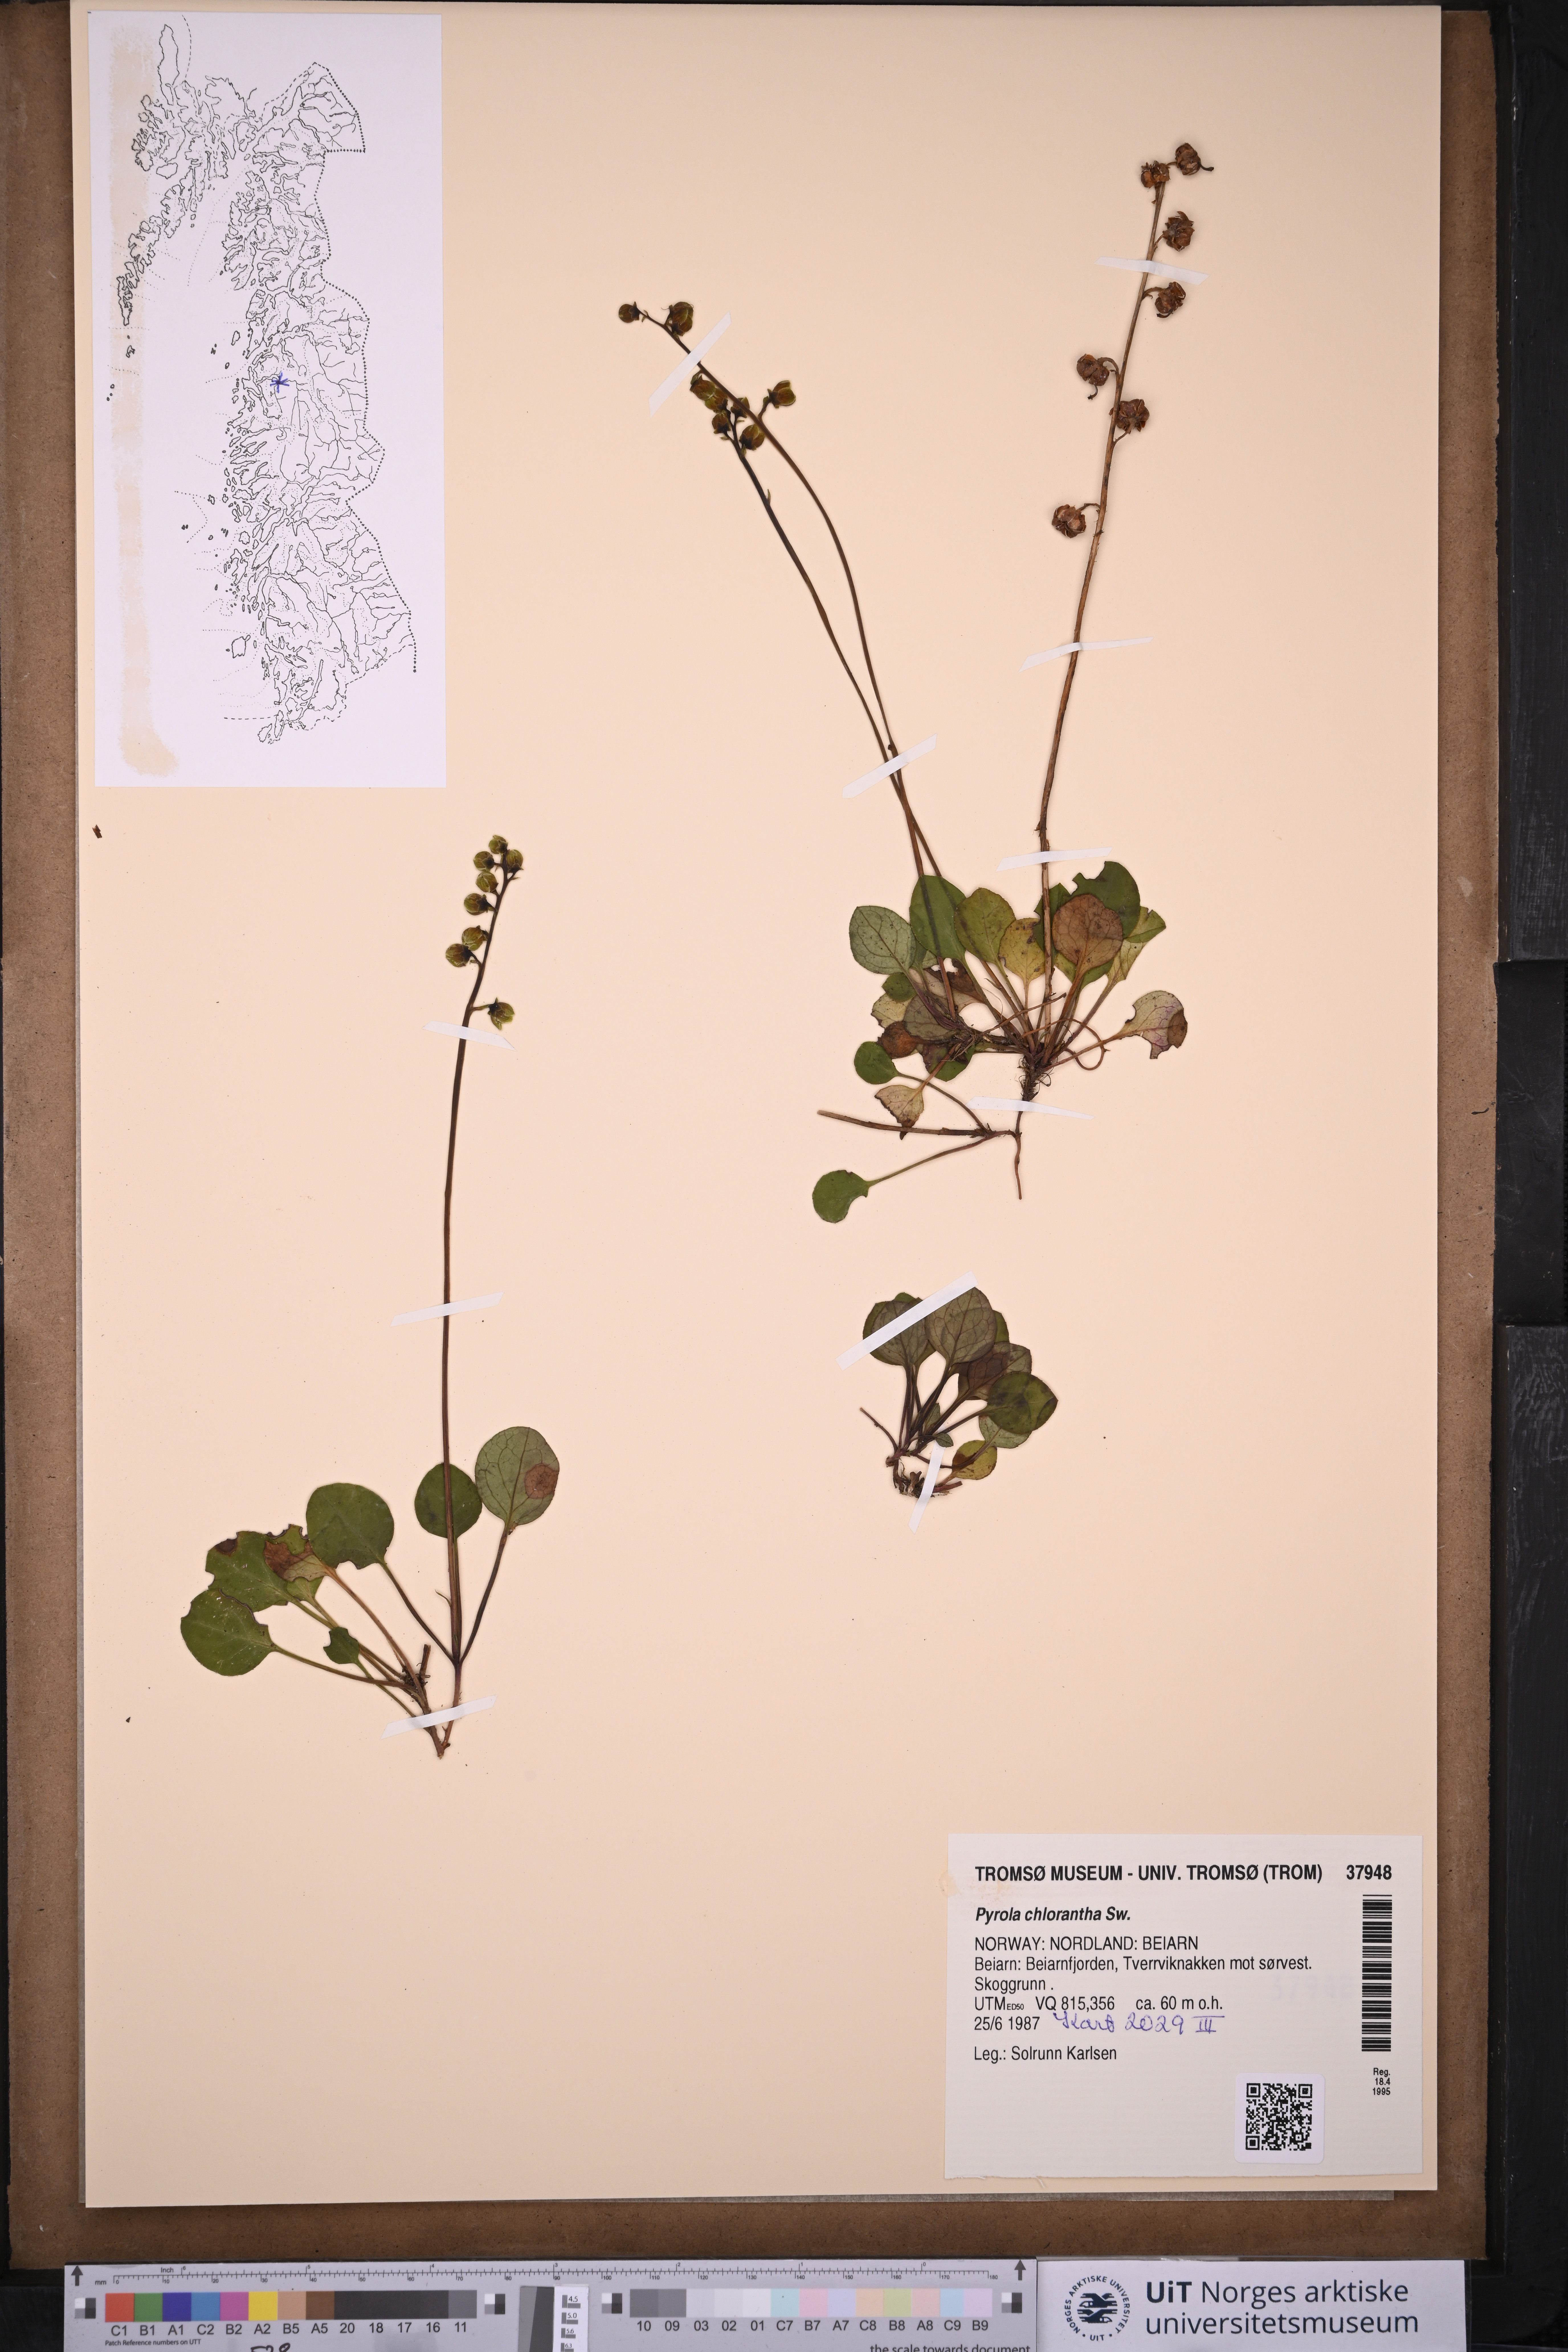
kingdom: Plantae
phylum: Tracheophyta
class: Magnoliopsida
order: Ericales
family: Ericaceae
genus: Pyrola
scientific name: Pyrola chlorantha
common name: Green wintergreen
